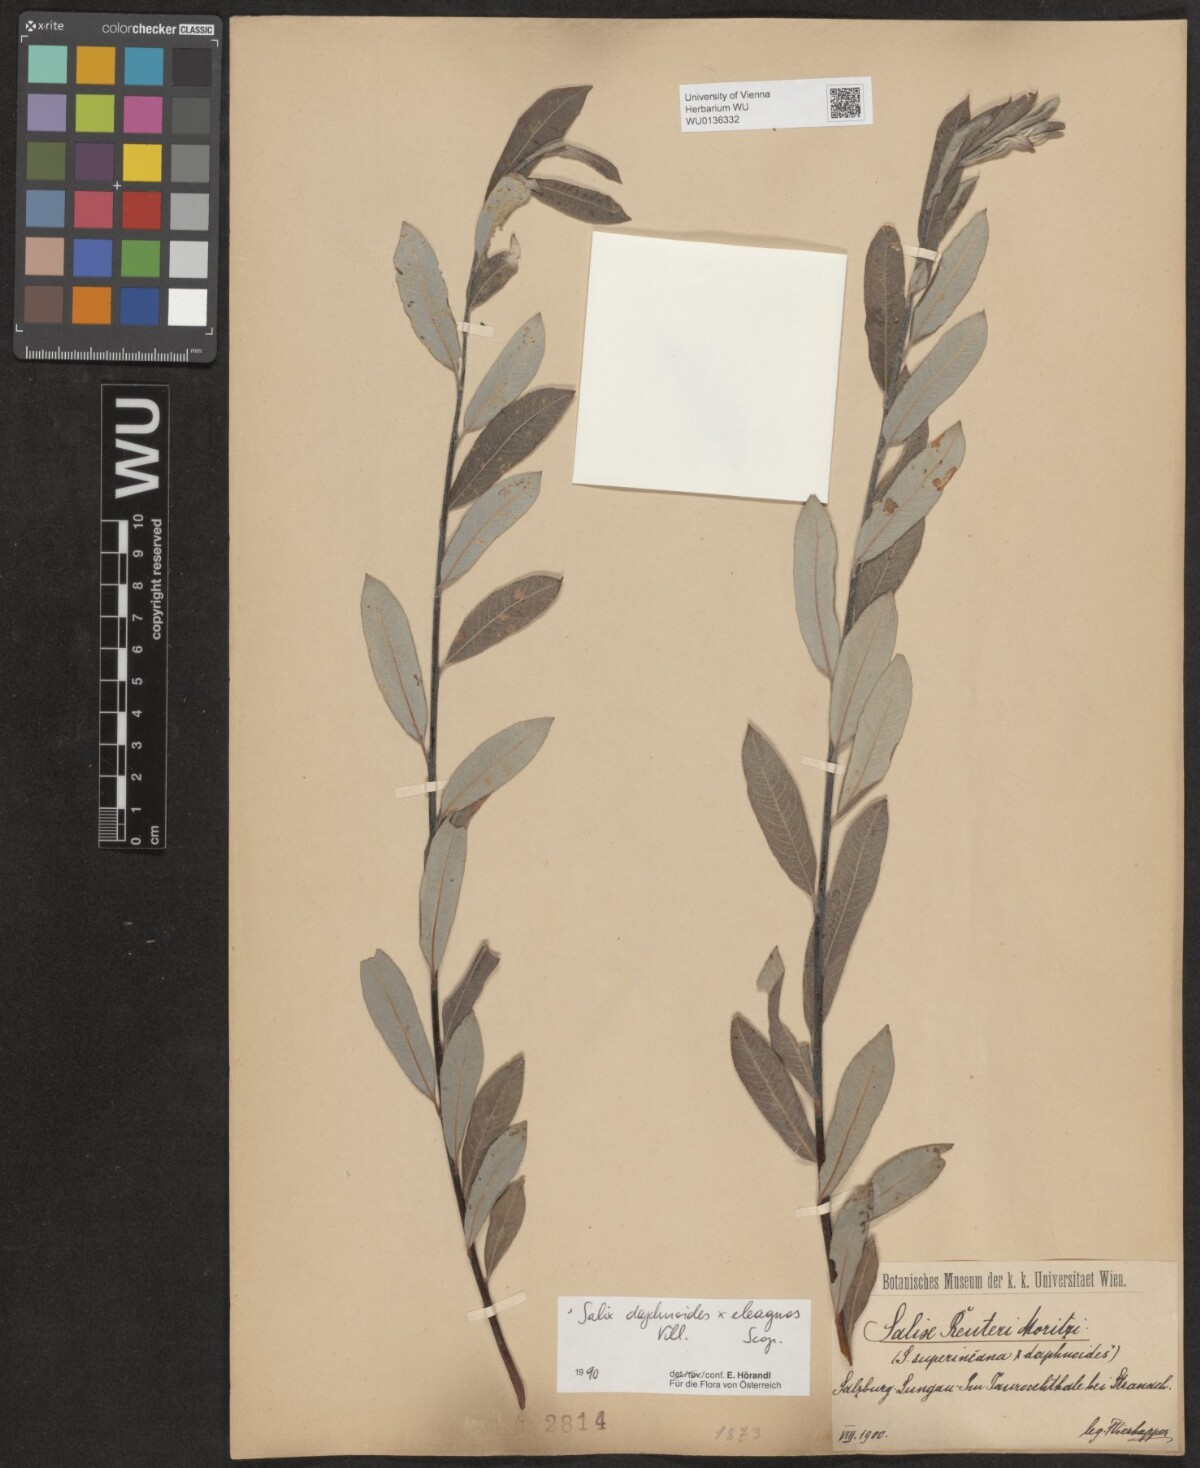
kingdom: Plantae
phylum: Tracheophyta
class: Magnoliopsida
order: Malpighiales
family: Salicaceae
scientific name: Salicaceae
